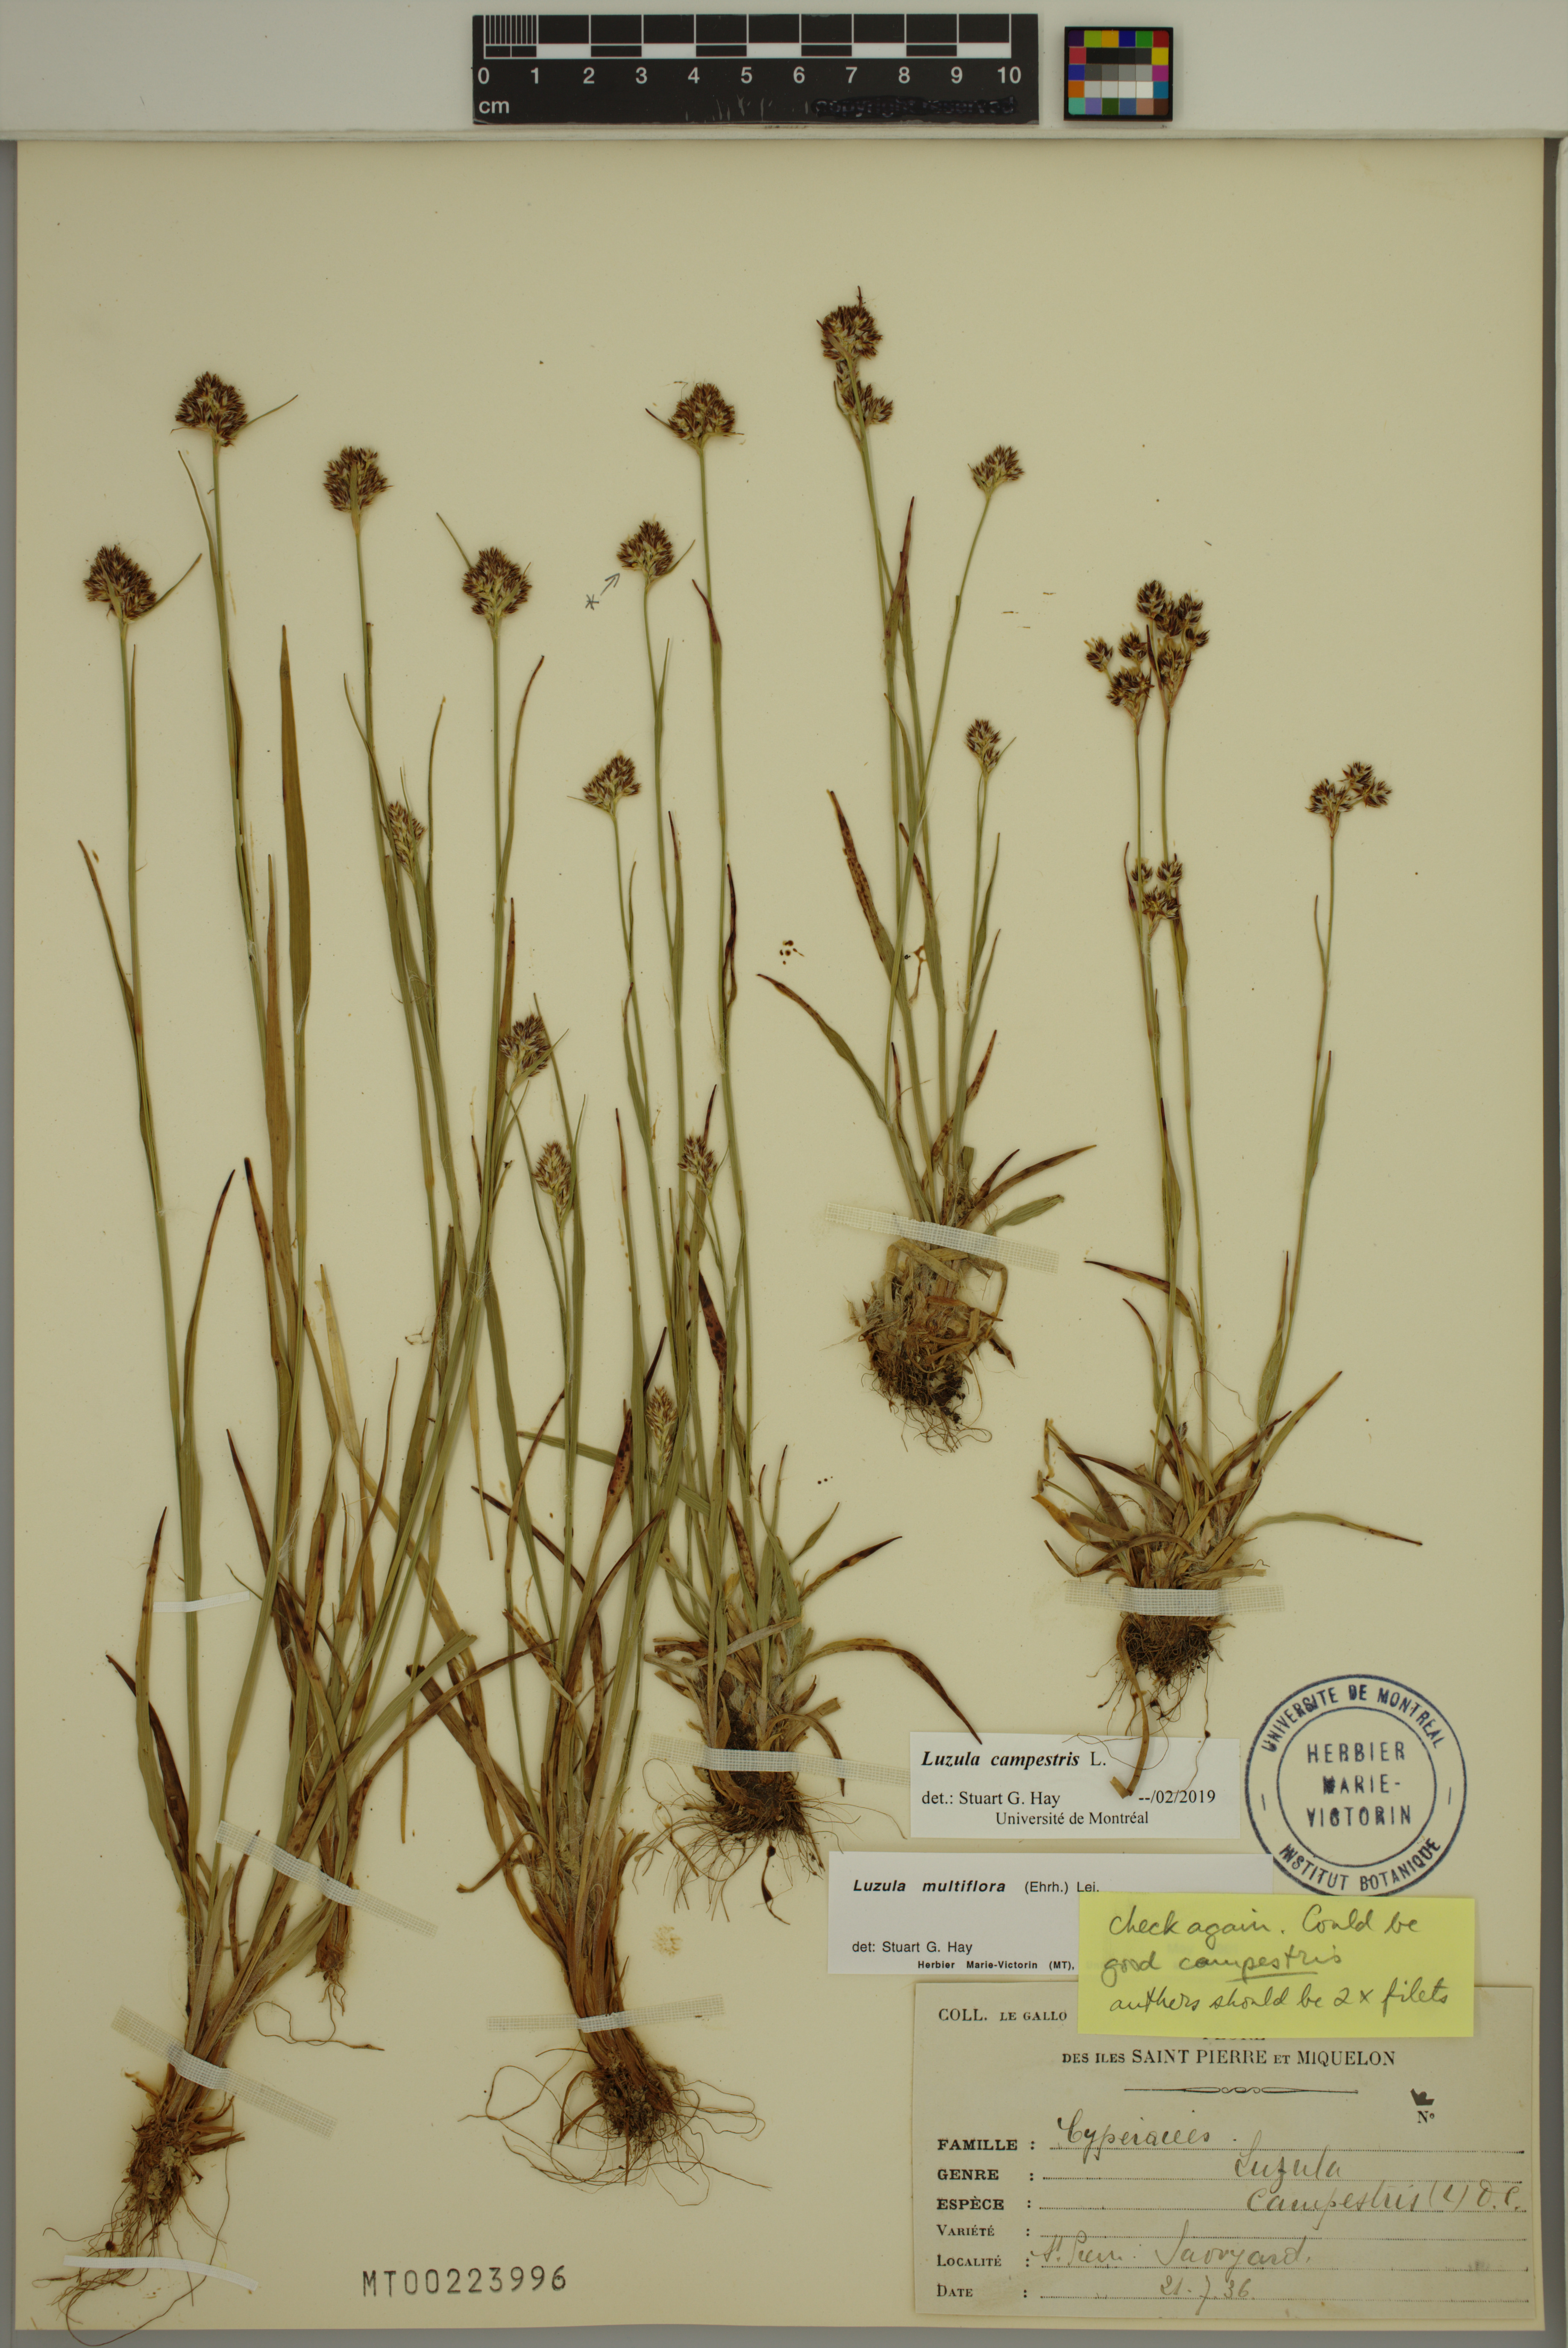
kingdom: Plantae
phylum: Tracheophyta
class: Liliopsida
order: Poales
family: Juncaceae
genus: Luzula
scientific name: Luzula campestris
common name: Field wood-rush
